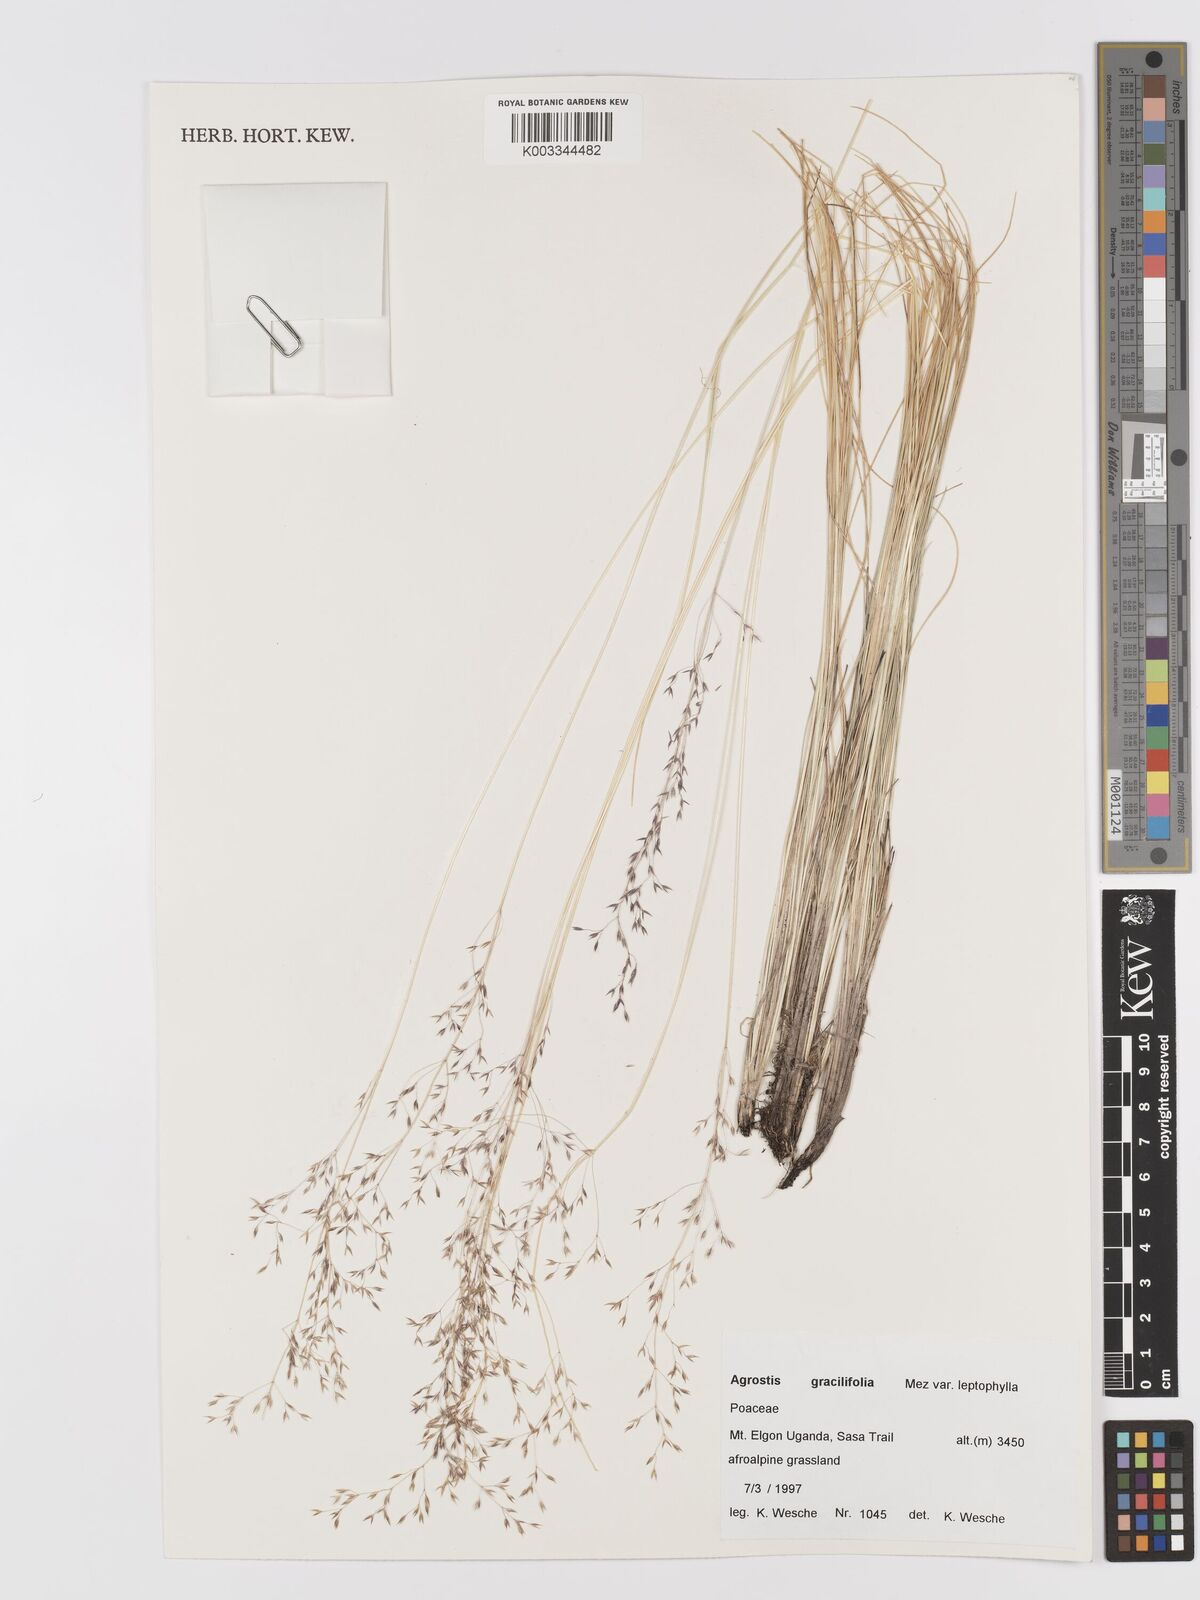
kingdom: Plantae
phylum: Tracheophyta
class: Liliopsida
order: Poales
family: Poaceae
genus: Agrostis
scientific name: Agrostis gracilifolia
